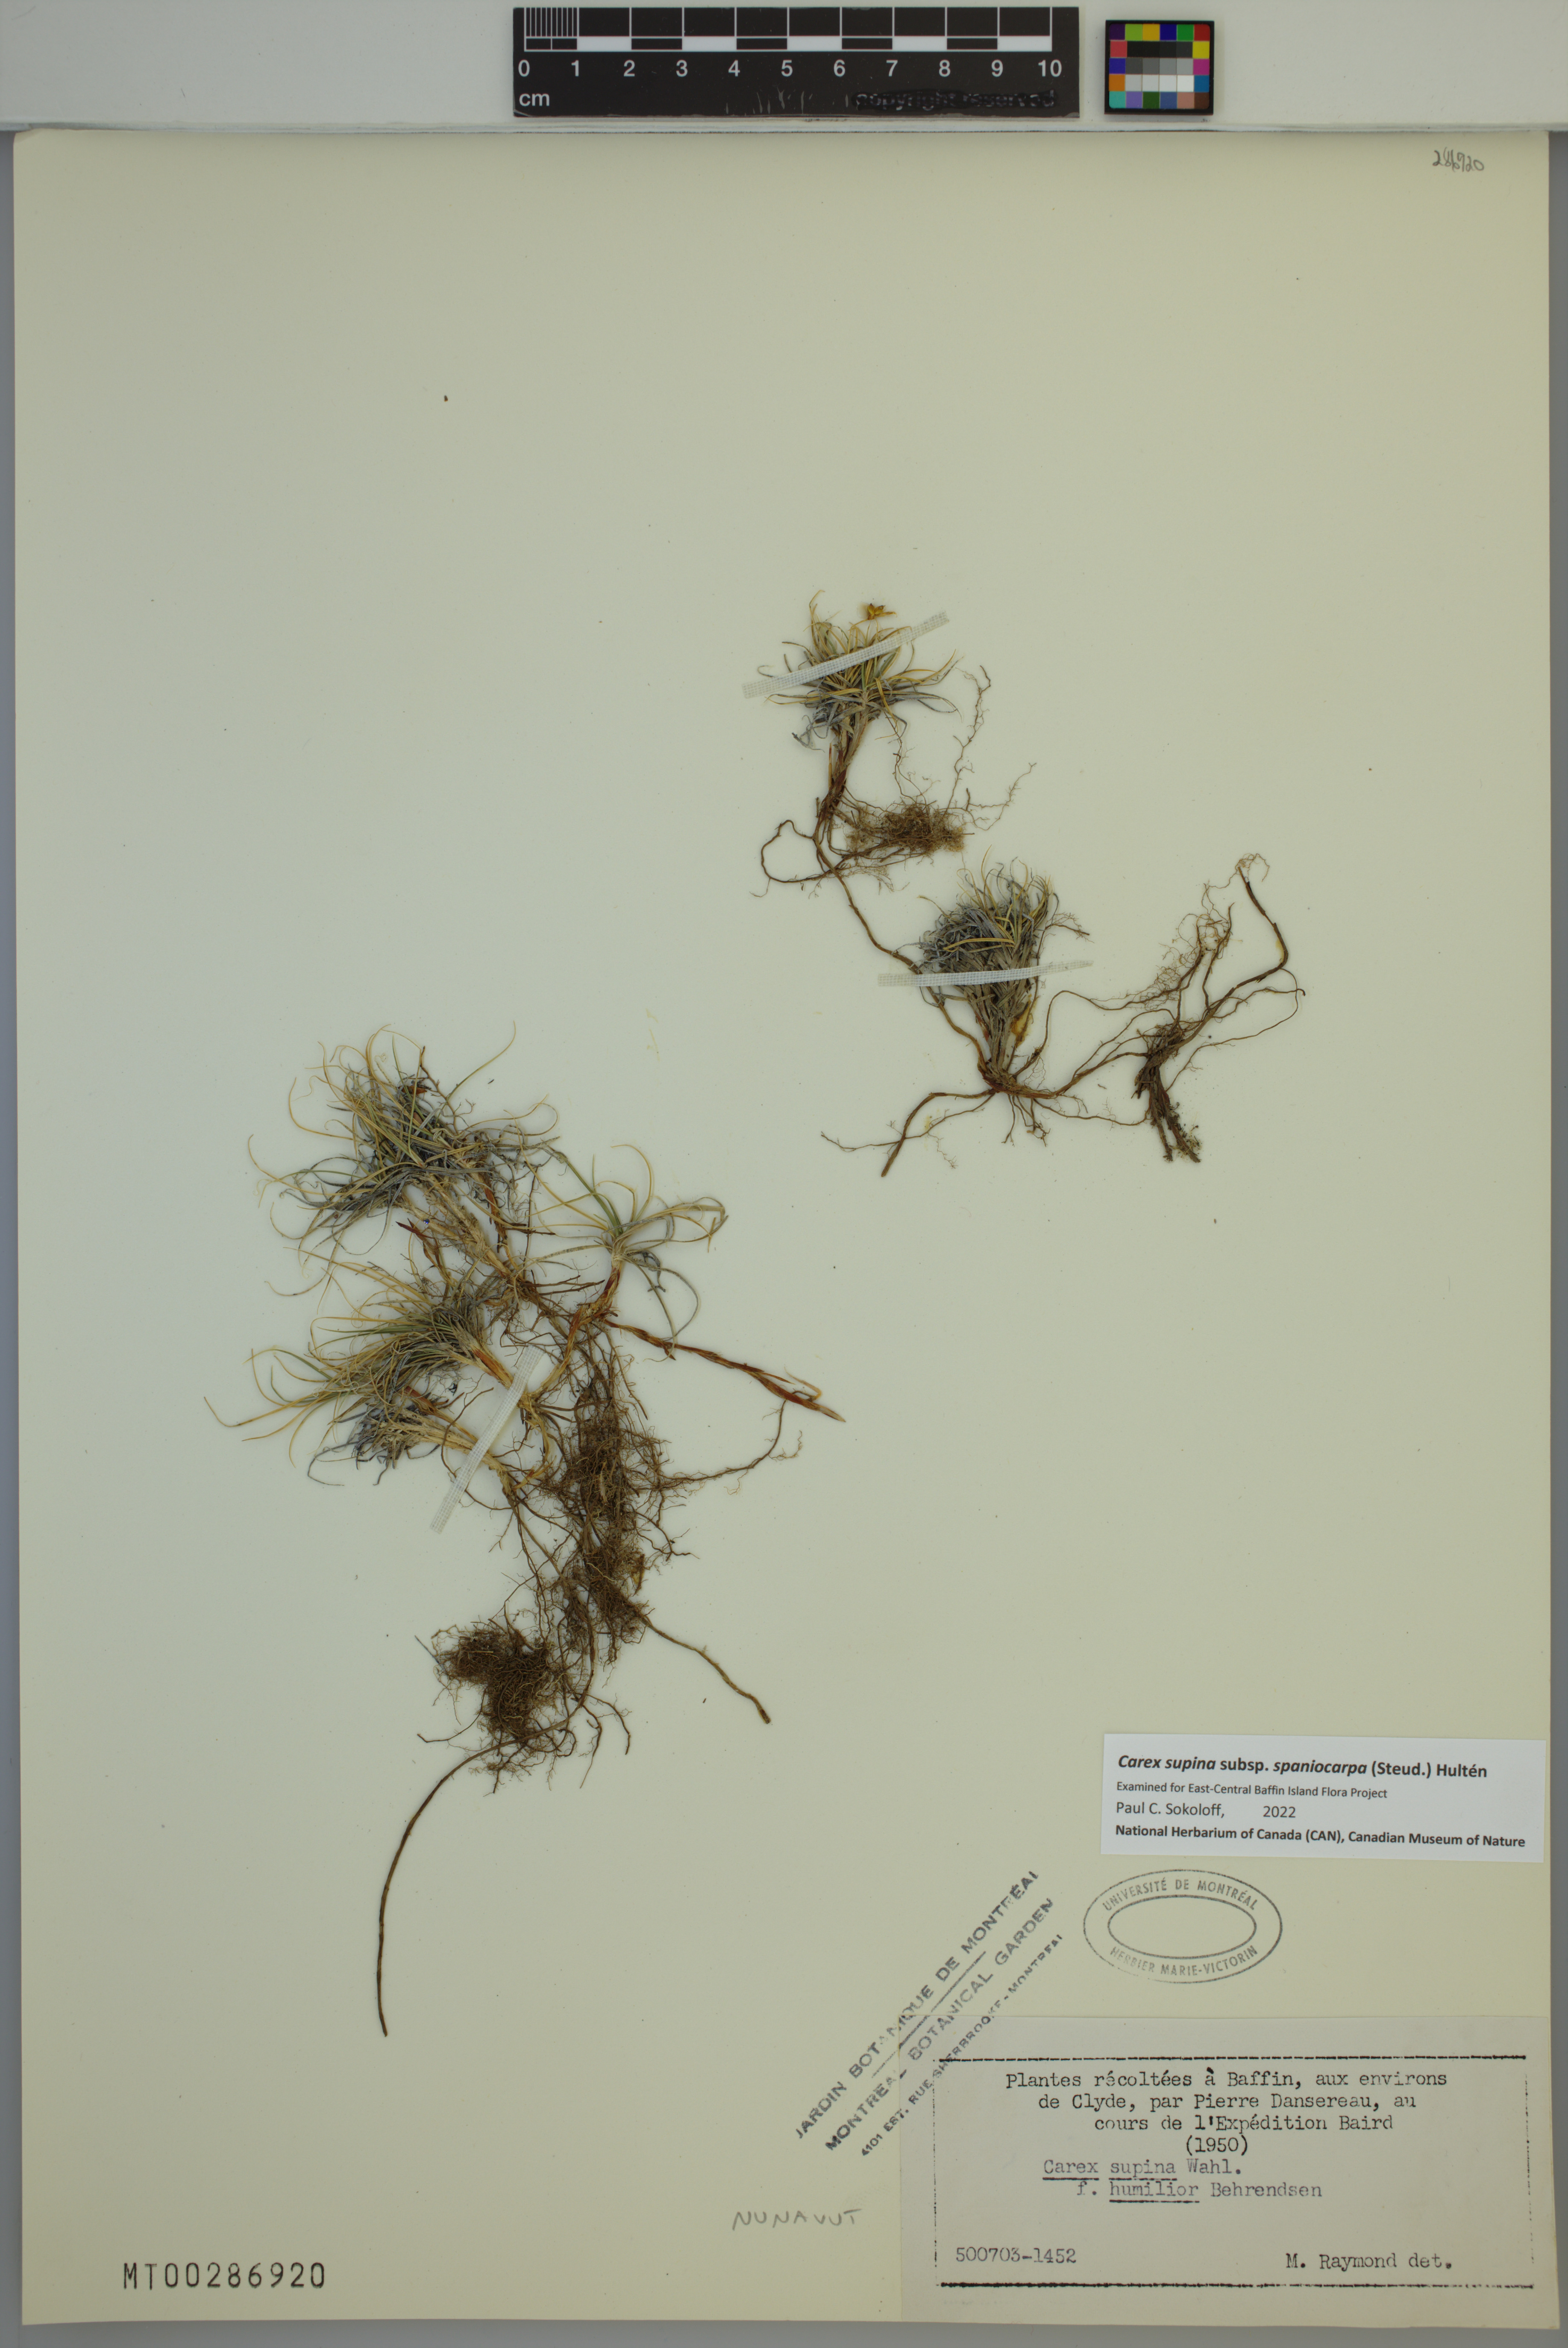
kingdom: Plantae
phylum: Tracheophyta
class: Liliopsida
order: Poales
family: Cyperaceae
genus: Carex
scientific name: Carex supina
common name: Lying-back sedge
